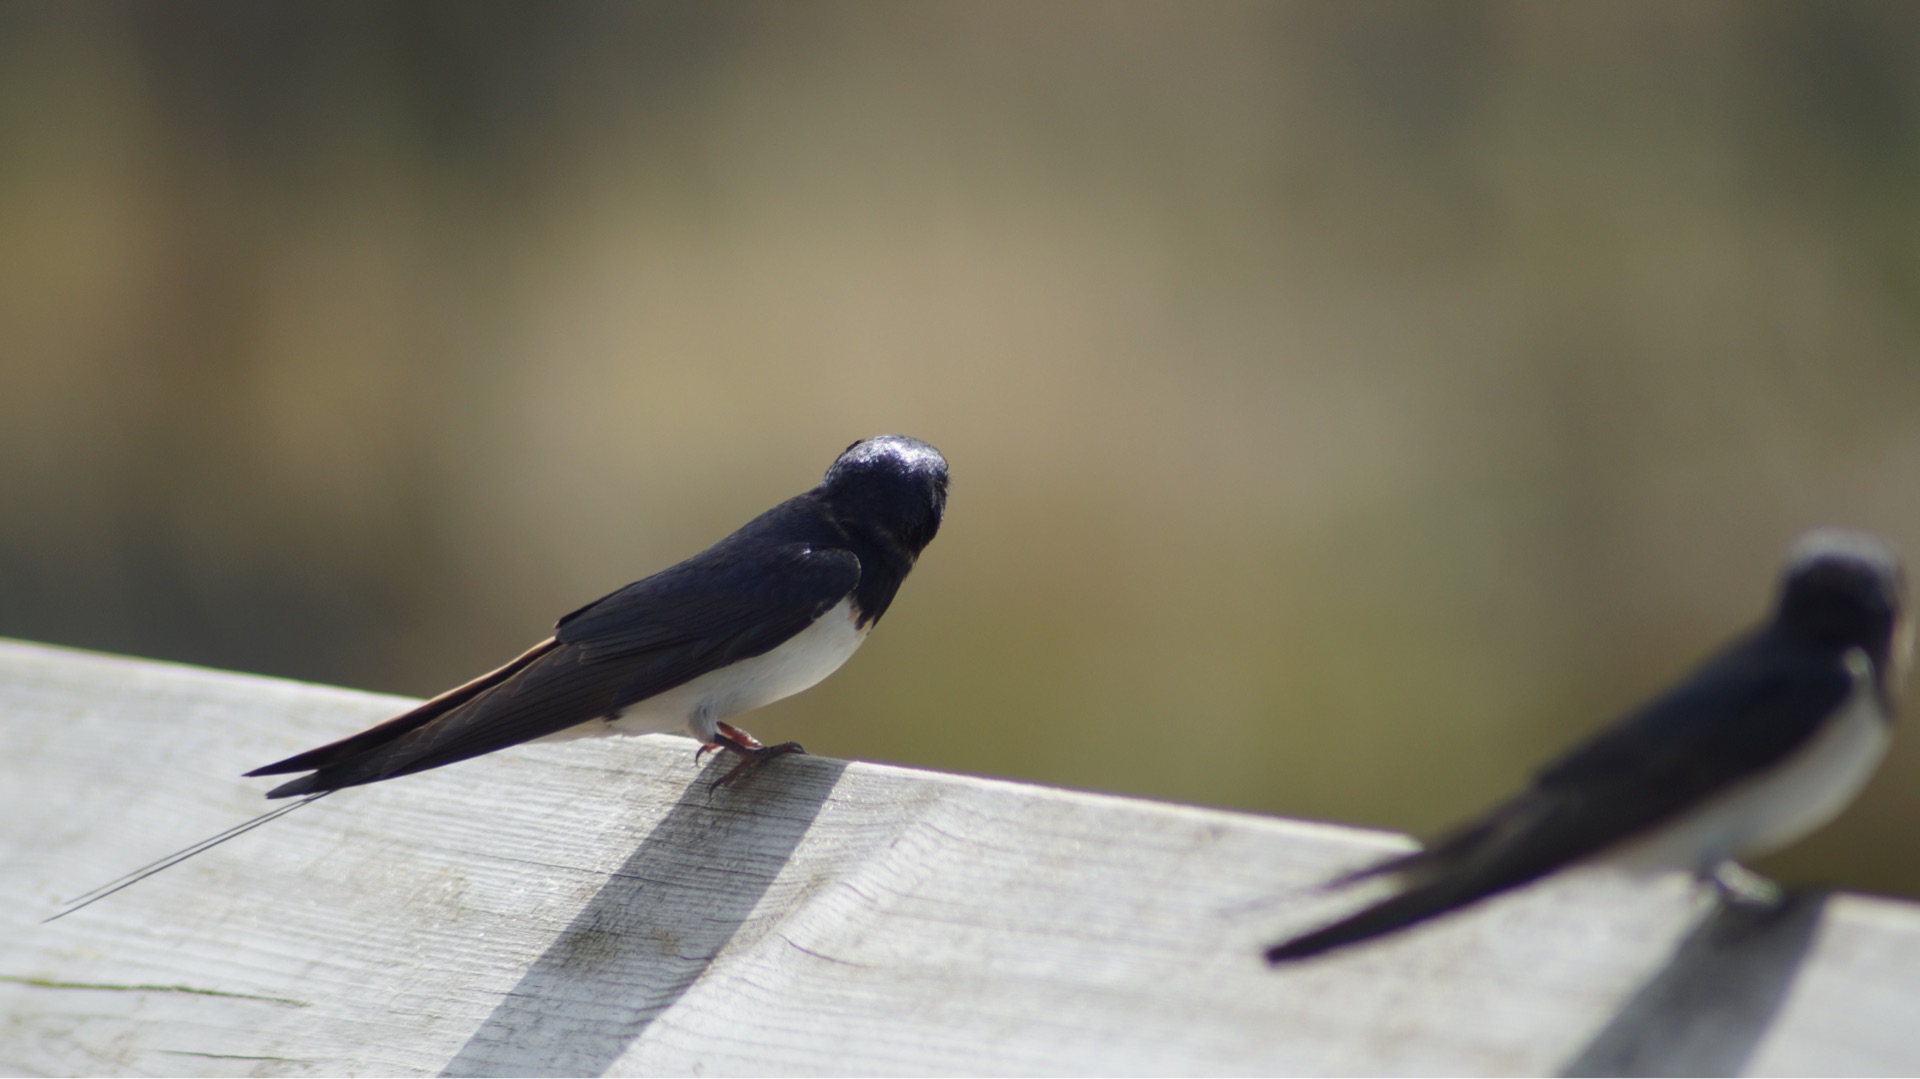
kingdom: Animalia
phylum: Chordata
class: Aves
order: Passeriformes
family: Hirundinidae
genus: Hirundo
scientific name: Hirundo rustica
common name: Landsvale
